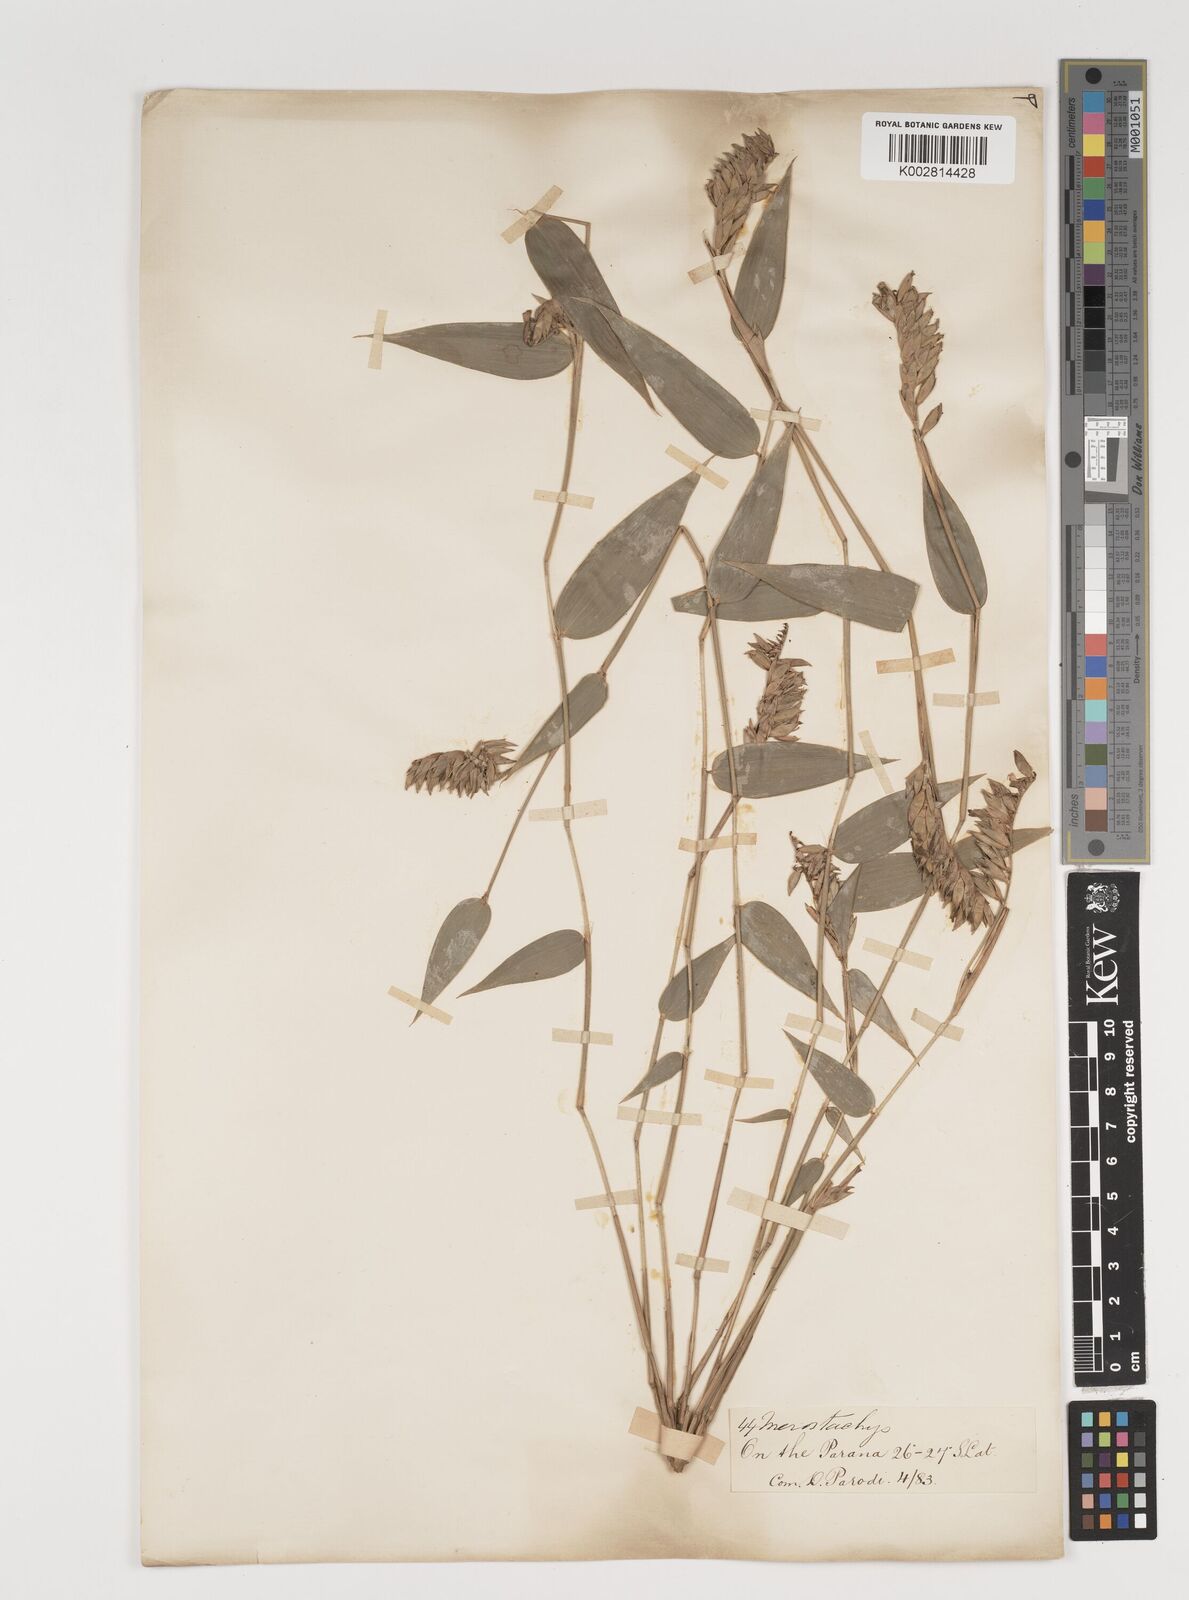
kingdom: Plantae
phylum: Tracheophyta
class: Liliopsida
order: Poales
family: Poaceae
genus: Merostachys
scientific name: Merostachys multiramea
